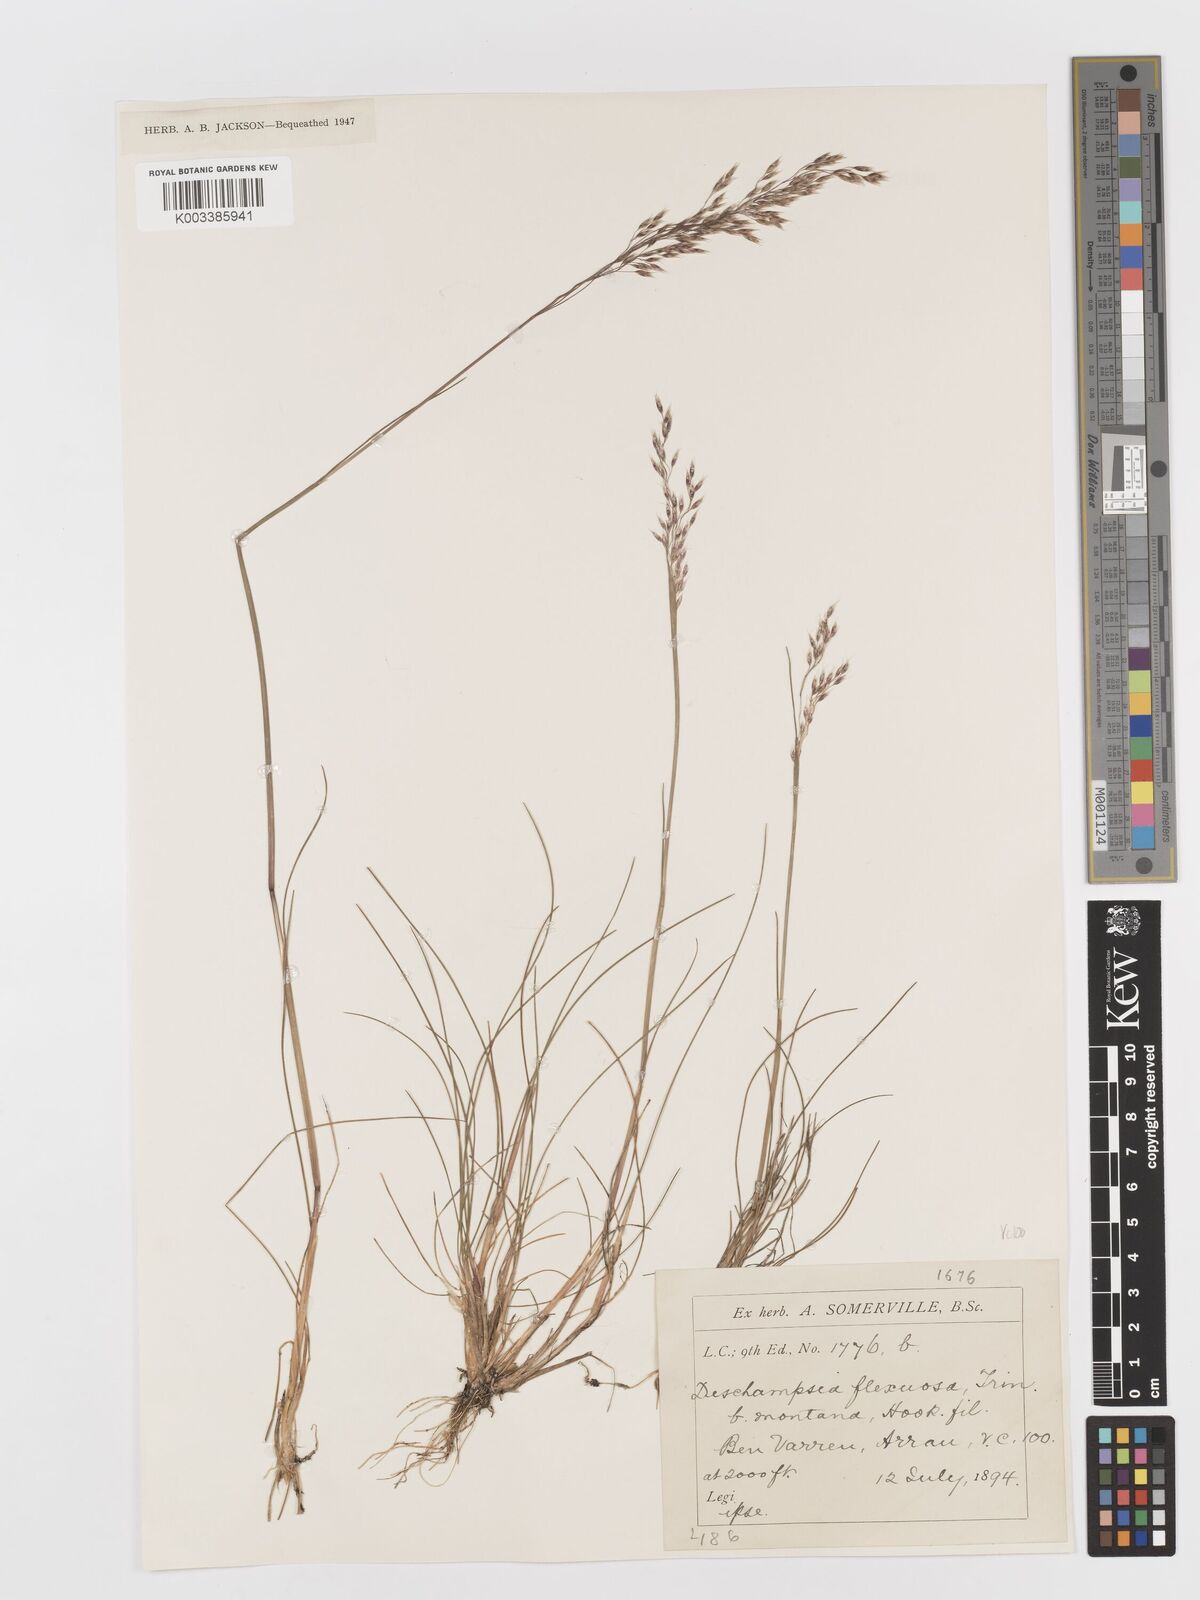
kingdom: Plantae
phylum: Tracheophyta
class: Liliopsida
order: Poales
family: Poaceae
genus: Avenella
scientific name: Avenella flexuosa
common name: Wavy hairgrass
